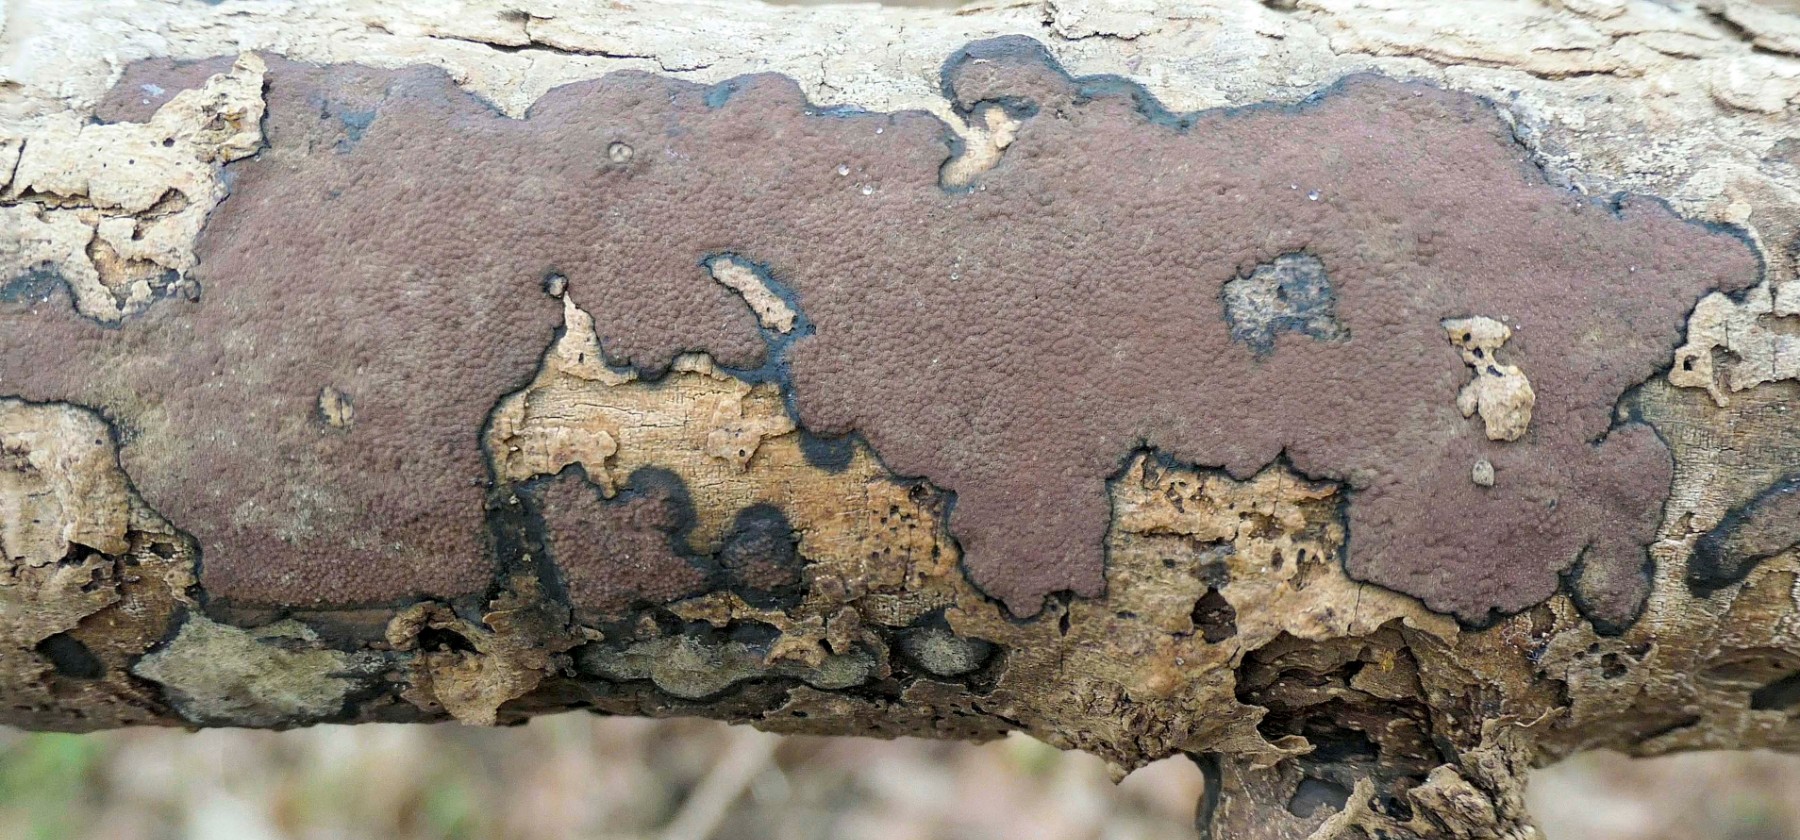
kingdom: Fungi
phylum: Ascomycota
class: Sordariomycetes
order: Xylariales
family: Hypoxylaceae
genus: Hypoxylon
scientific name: Hypoxylon petriniae
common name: nedsænket kulbær
